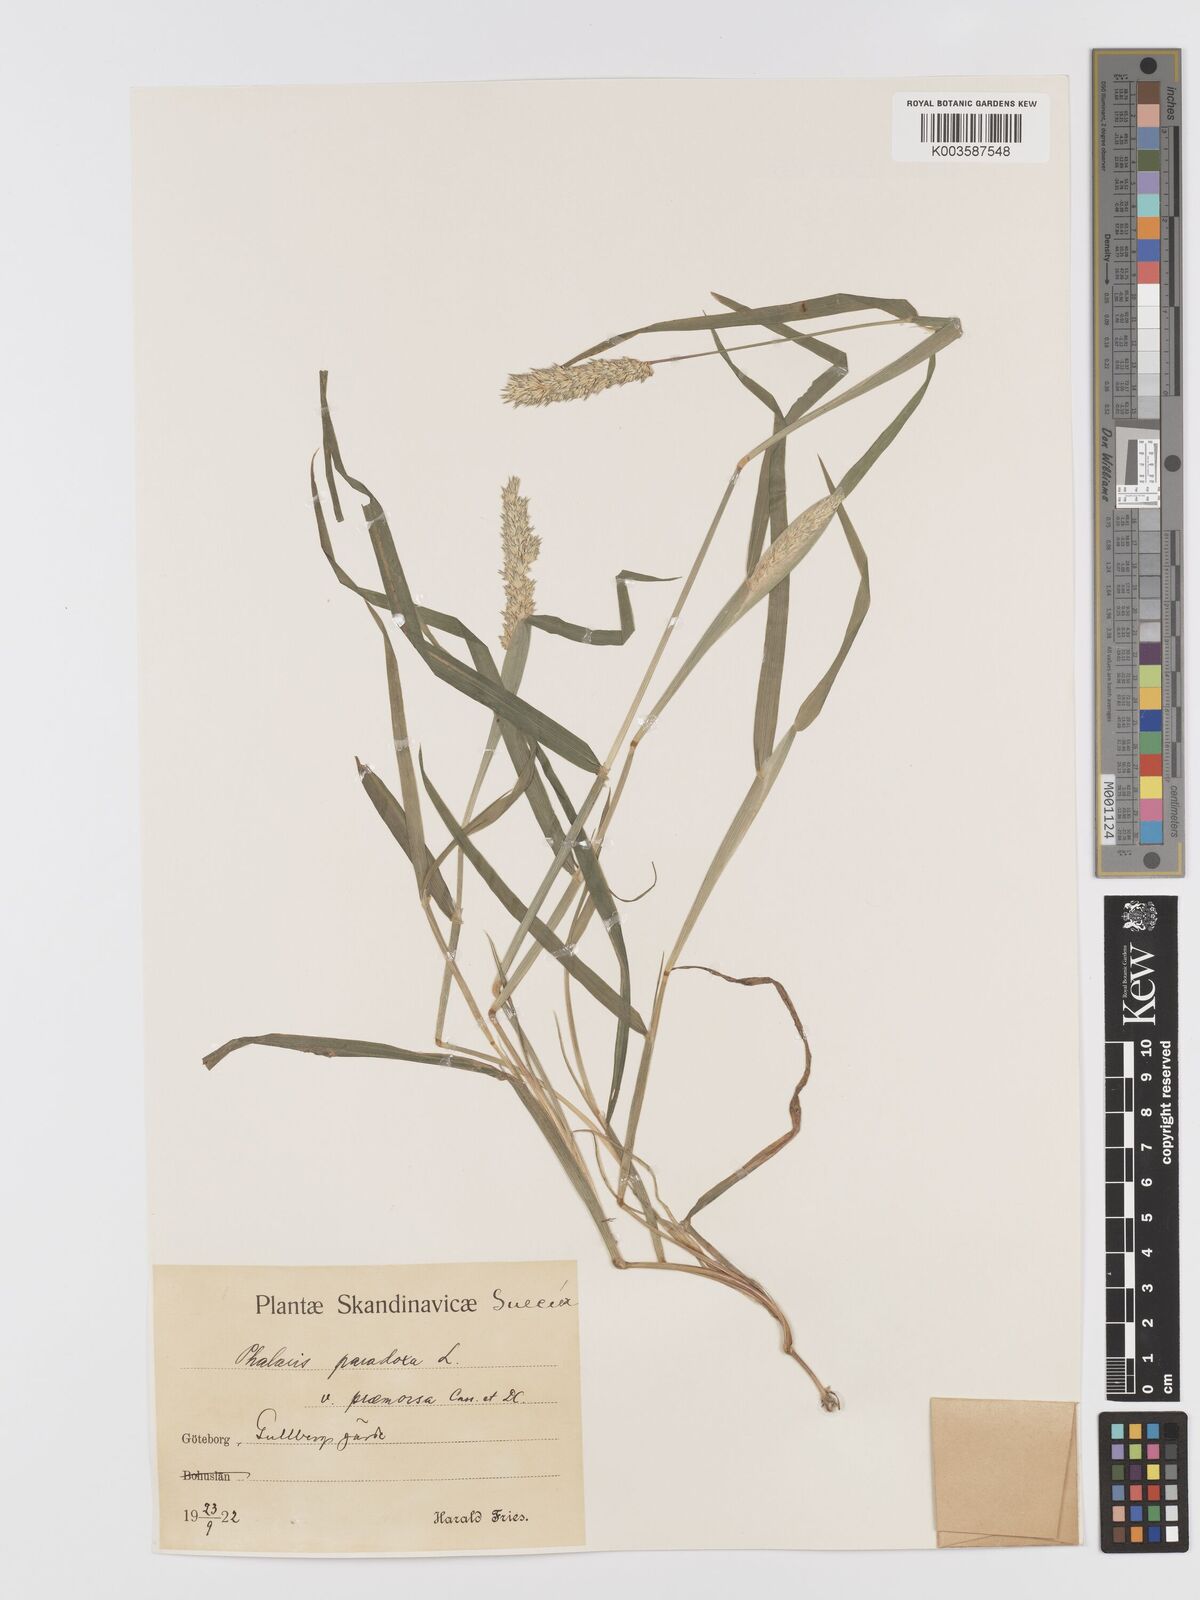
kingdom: Plantae
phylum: Tracheophyta
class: Liliopsida
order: Poales
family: Poaceae
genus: Phalaris
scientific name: Phalaris paradoxa
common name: Awned canary-grass
